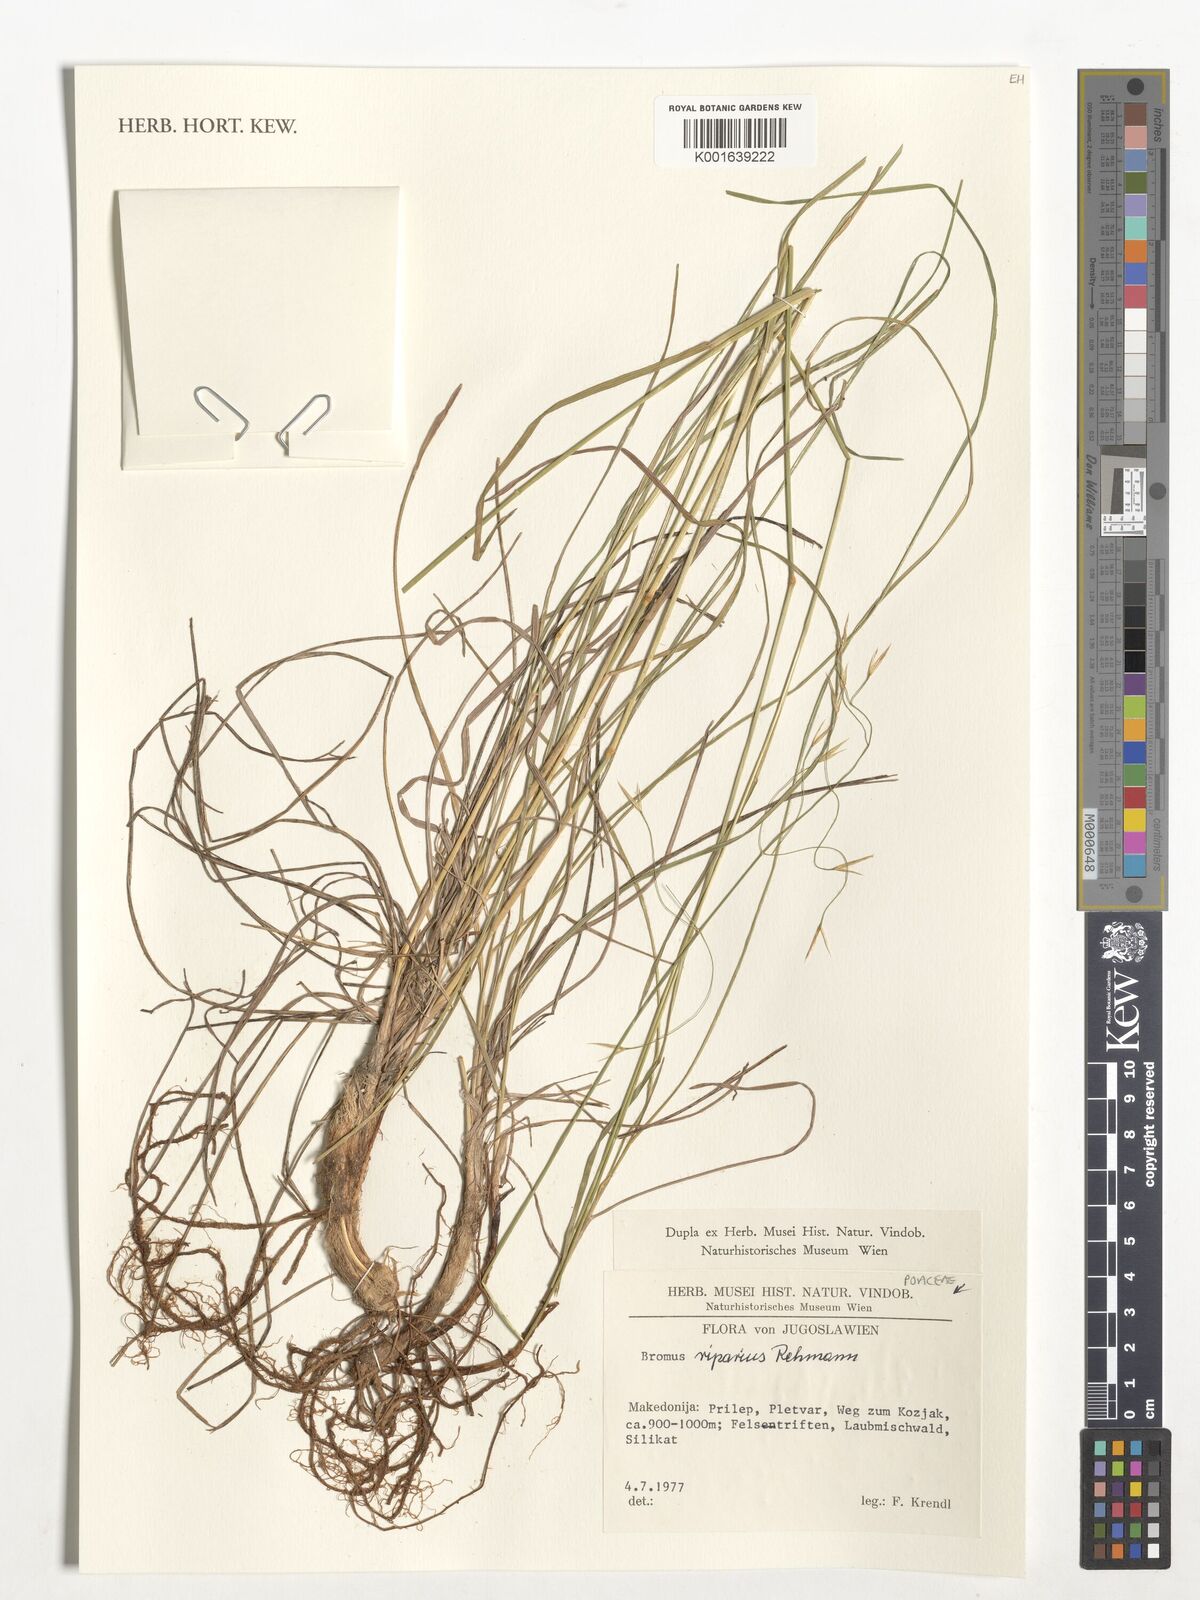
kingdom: Plantae
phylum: Tracheophyta
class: Liliopsida
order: Poales
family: Poaceae
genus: Bromus
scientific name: Bromus riparius
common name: Meadow brome
